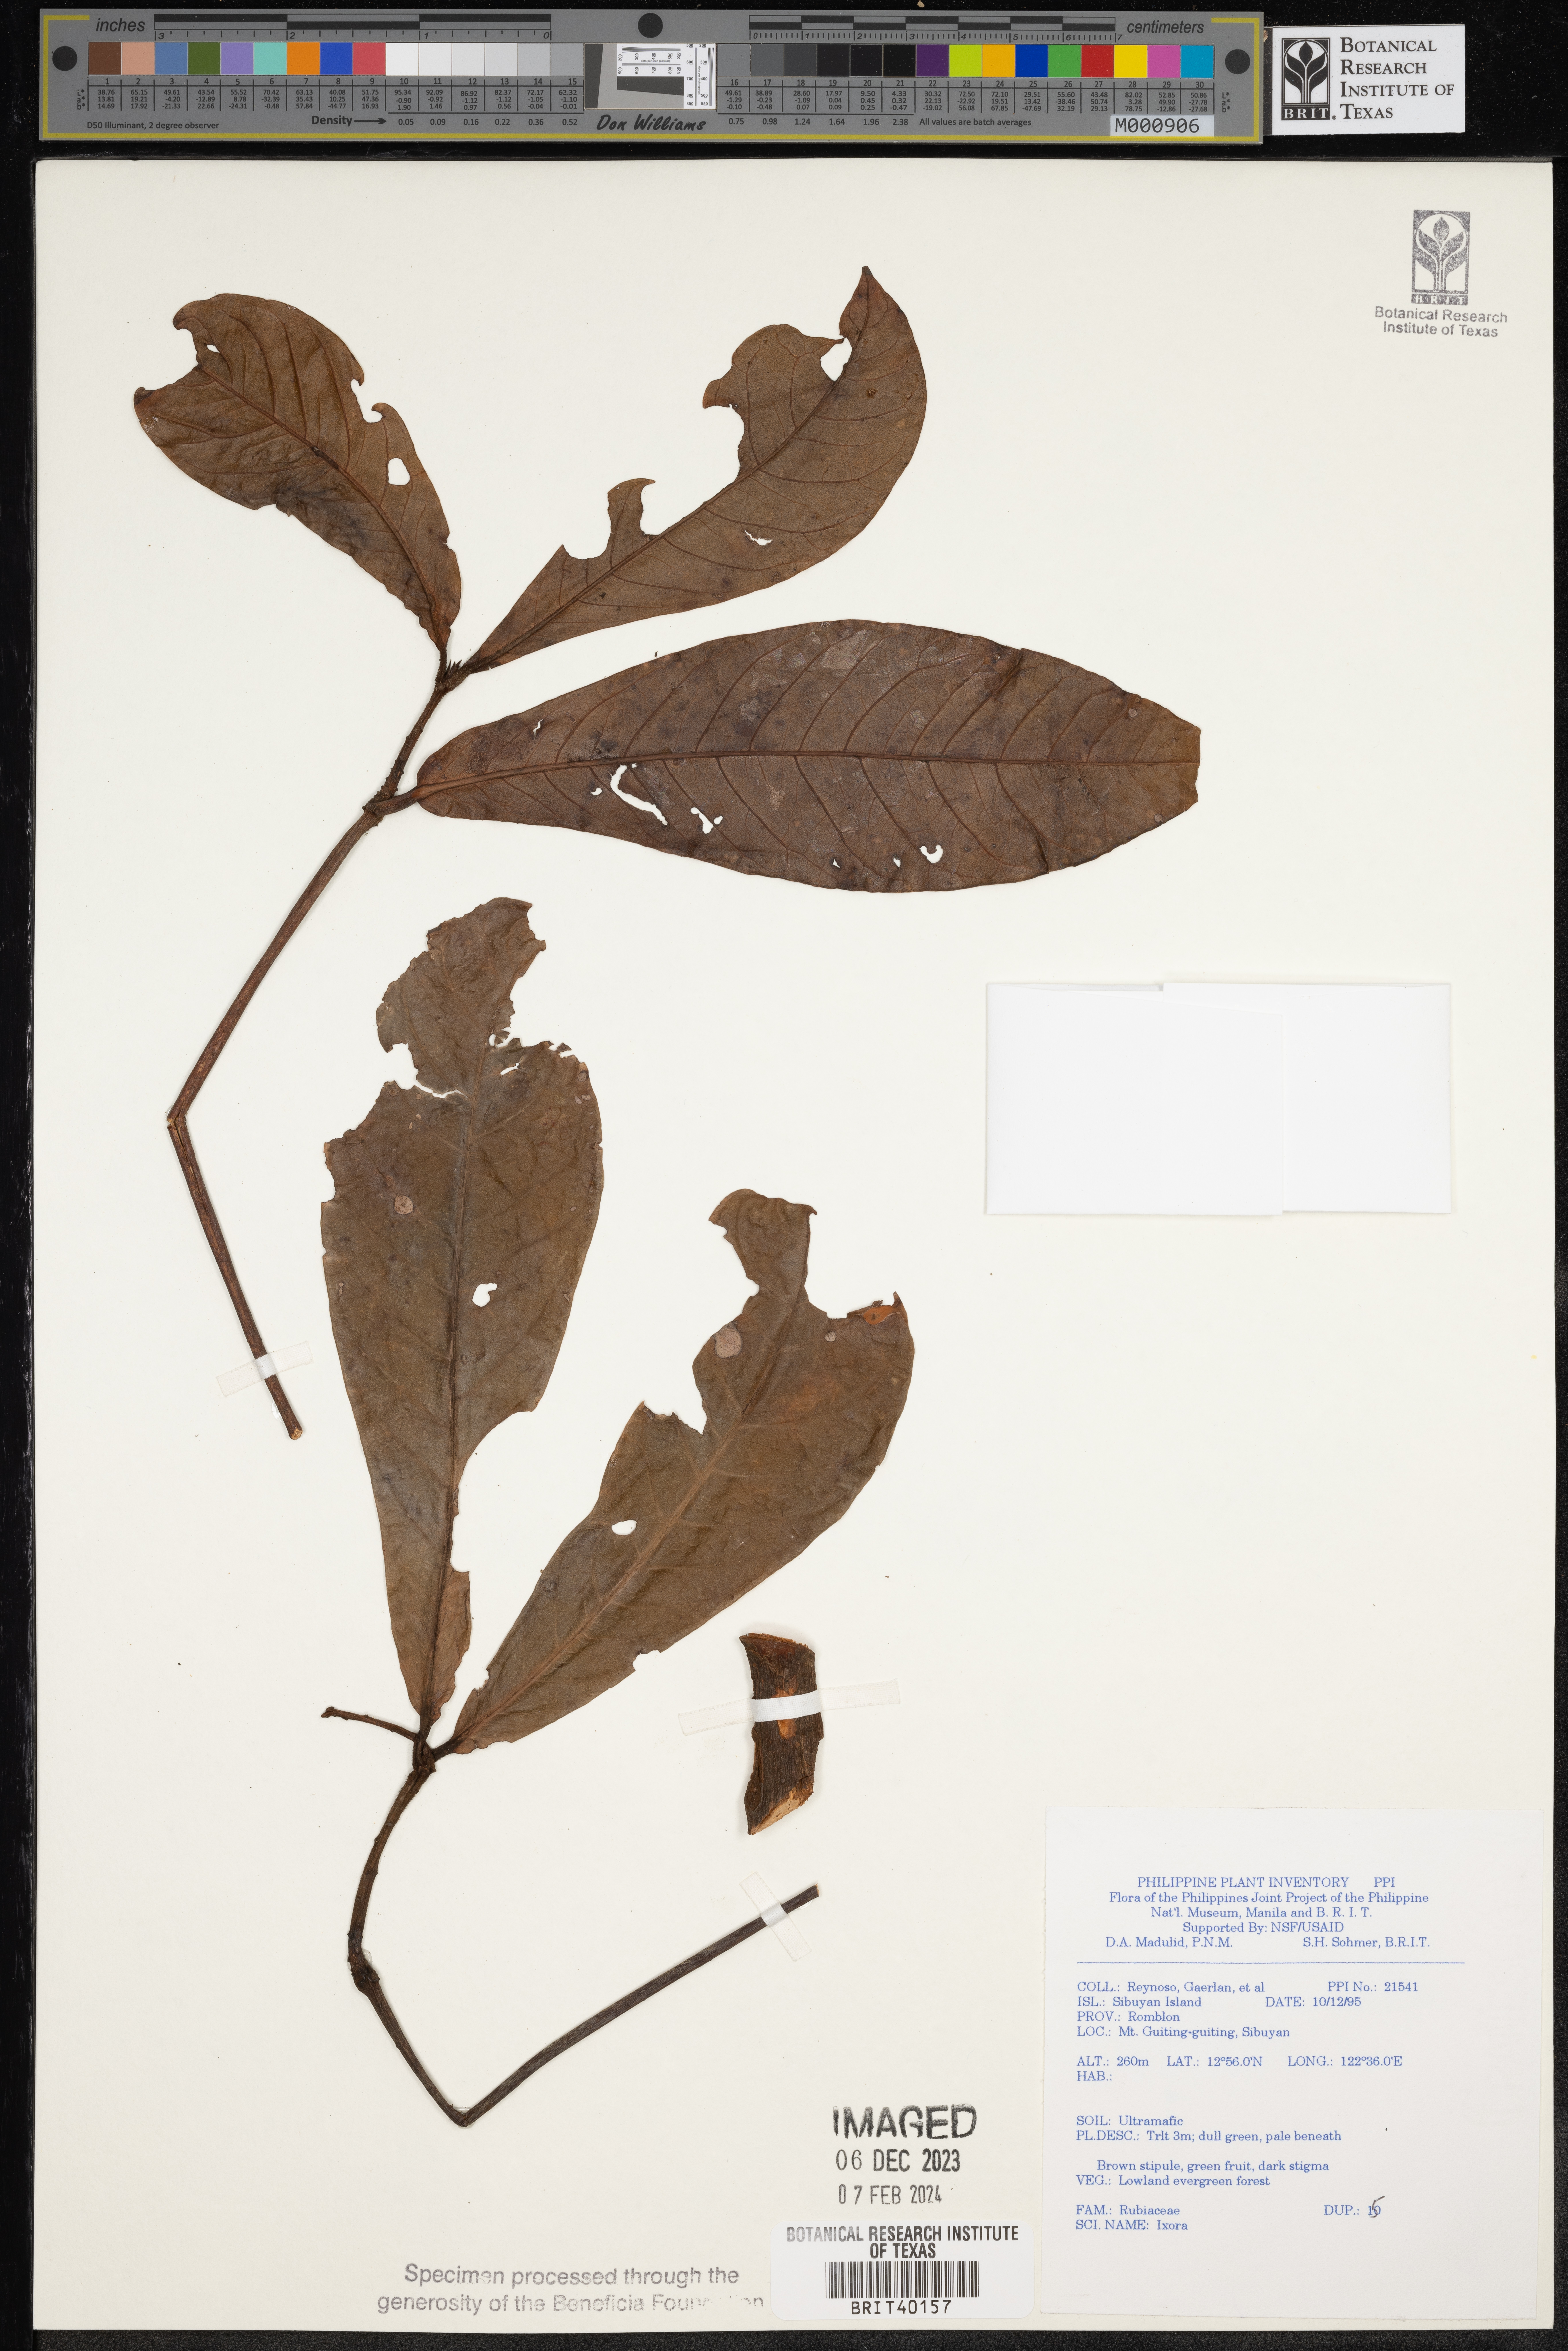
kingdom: Plantae
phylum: Tracheophyta
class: Magnoliopsida
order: Gentianales
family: Rubiaceae
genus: Ixora
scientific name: Ixora
